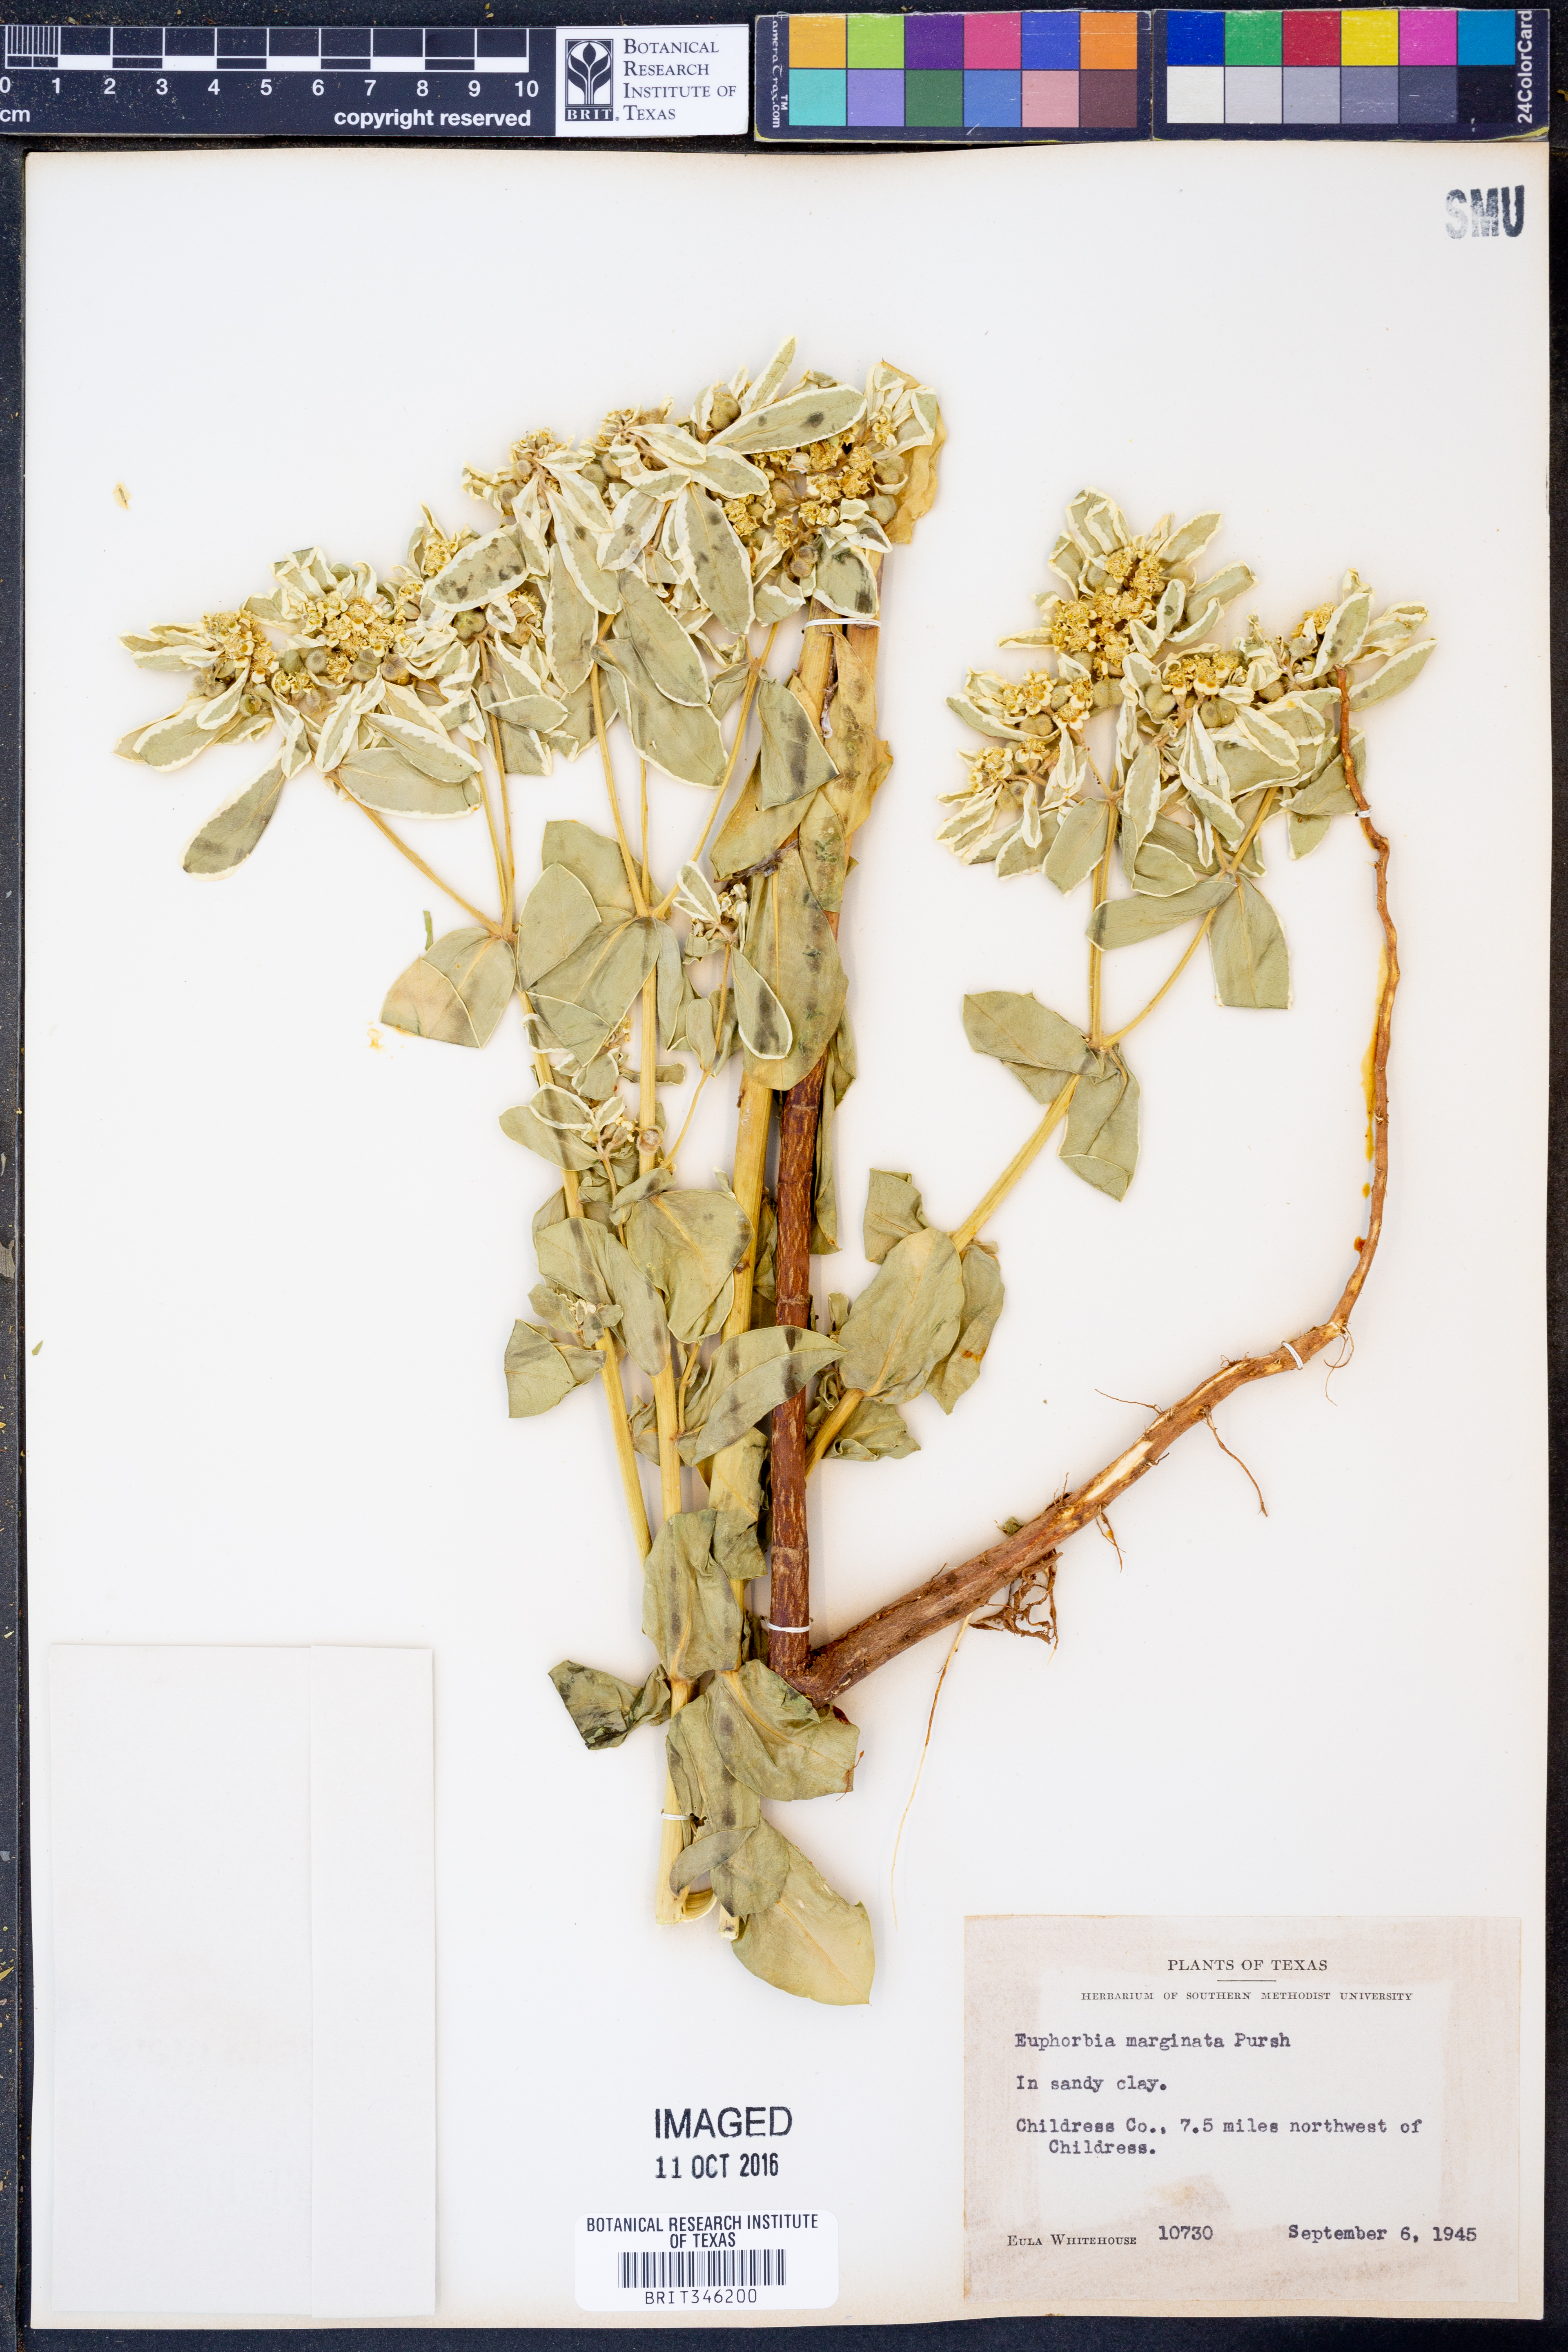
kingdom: Plantae
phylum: Tracheophyta
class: Magnoliopsida
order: Malpighiales
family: Euphorbiaceae
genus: Euphorbia
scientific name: Euphorbia marginata
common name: Ghostweed
